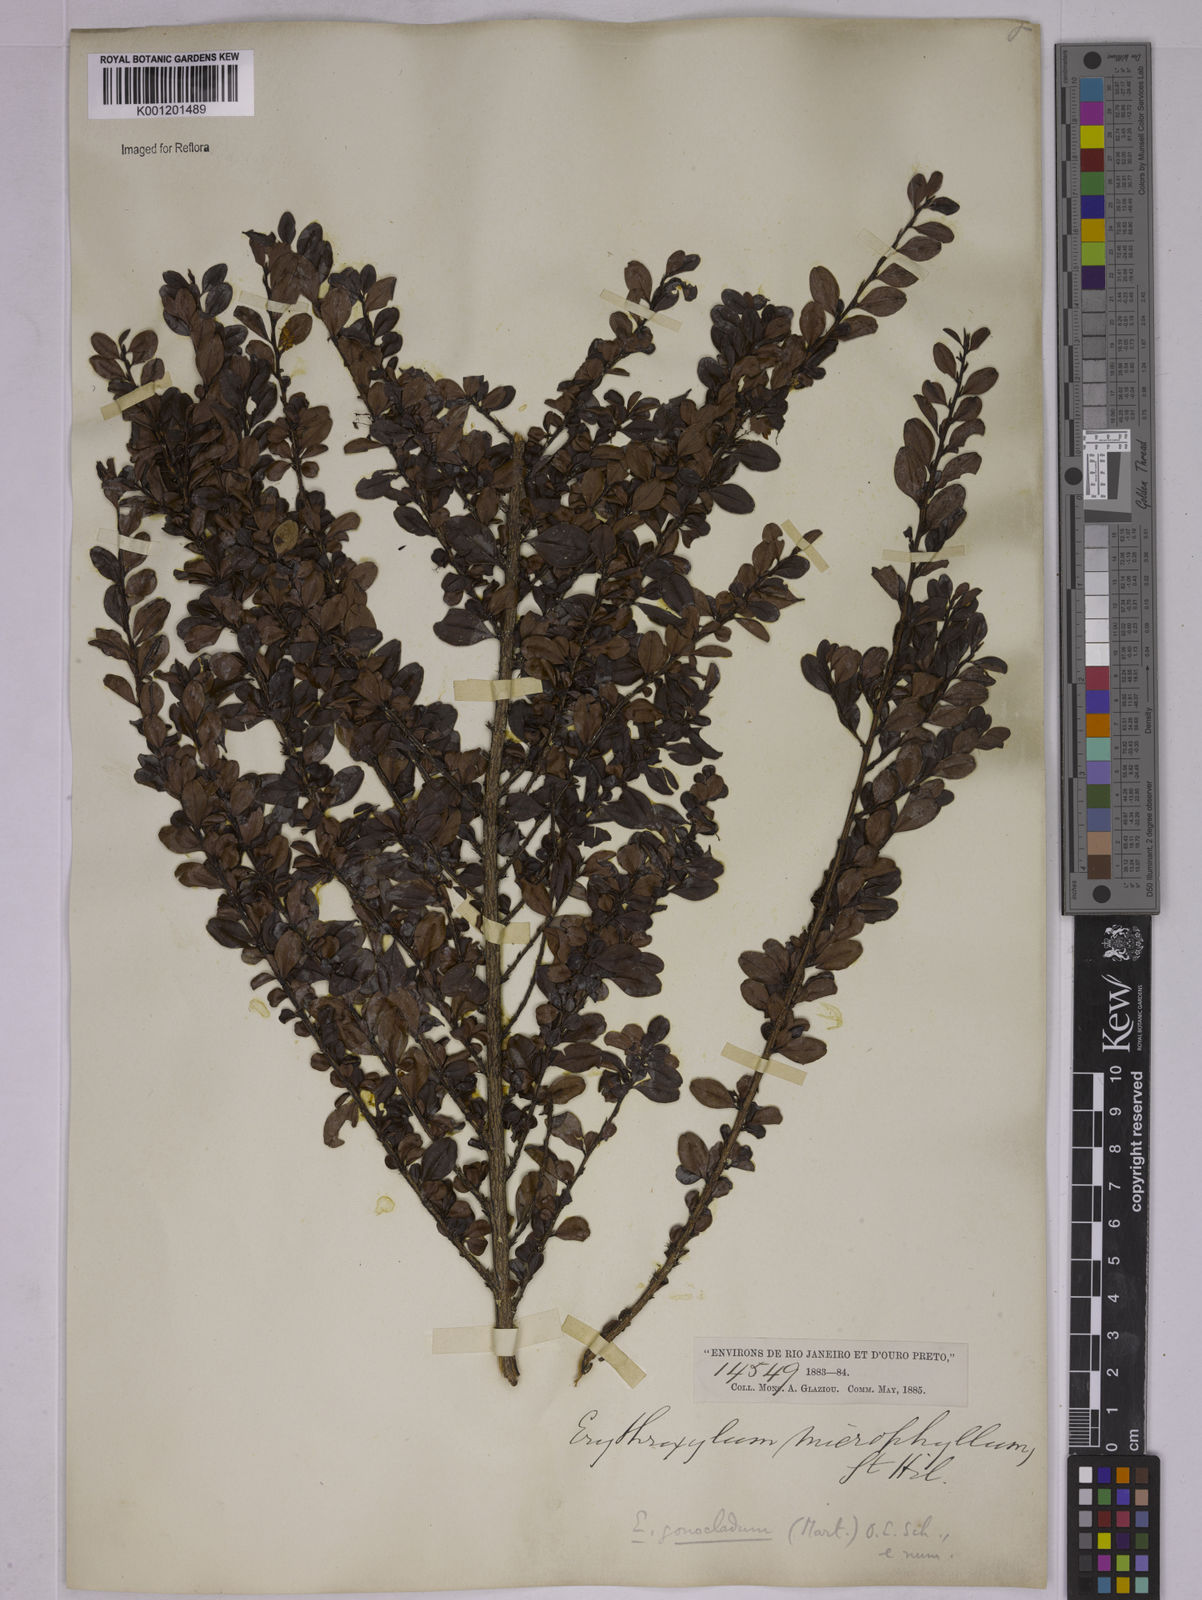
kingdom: Plantae
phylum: Tracheophyta
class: Magnoliopsida
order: Malpighiales
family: Erythroxylaceae
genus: Erythroxylum
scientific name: Erythroxylum
